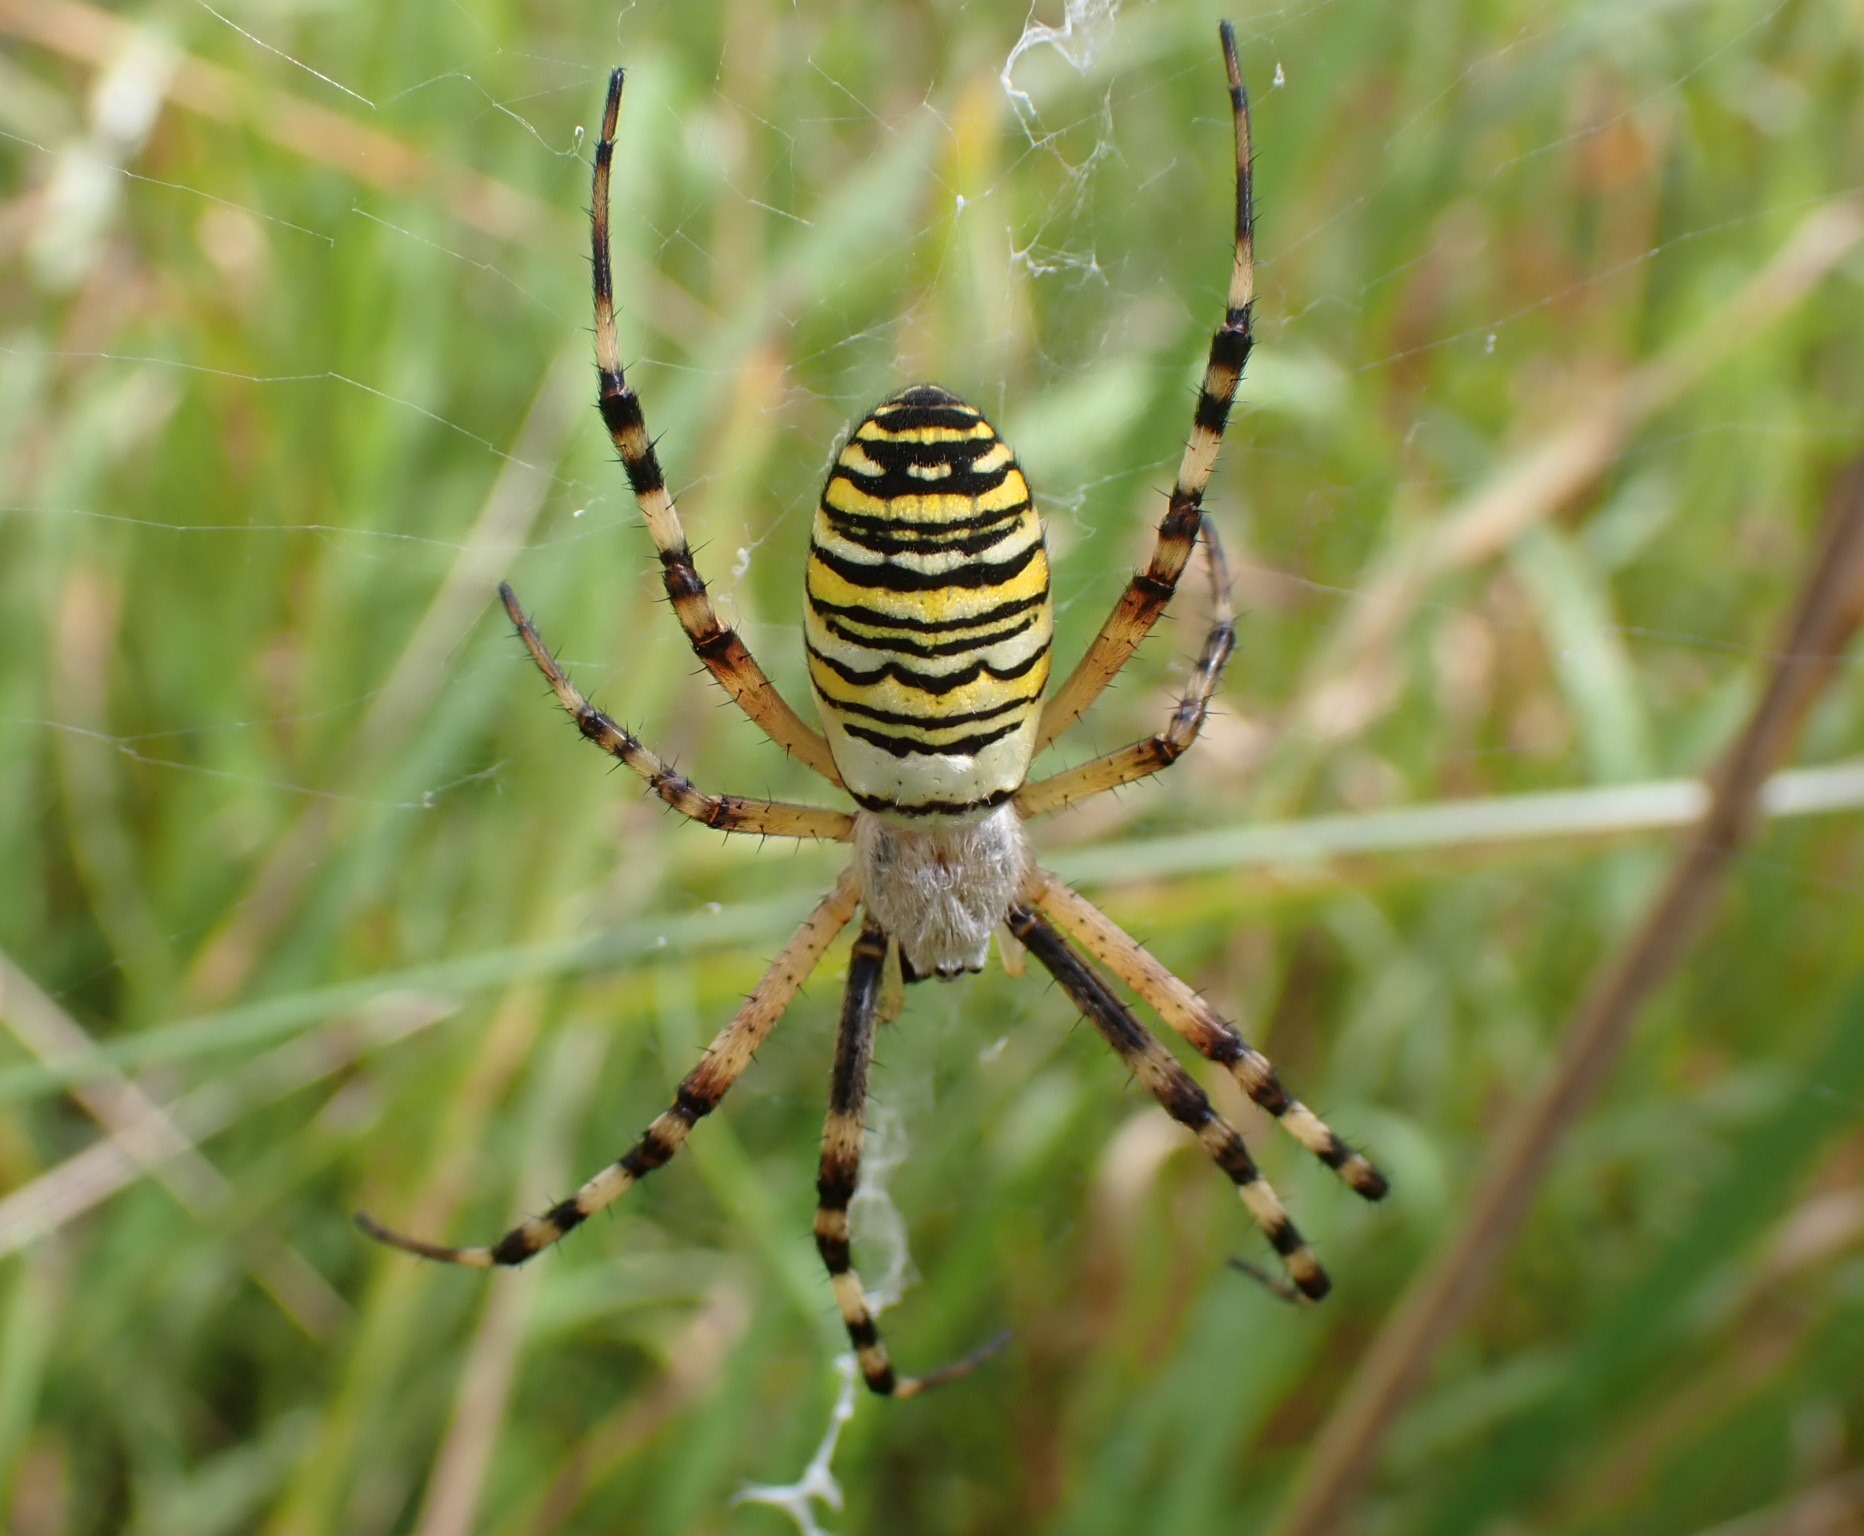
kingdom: Animalia
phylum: Arthropoda
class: Arachnida
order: Araneae
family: Araneidae
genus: Argiope
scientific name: Argiope bruennichi
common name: Hvepseedderkop
